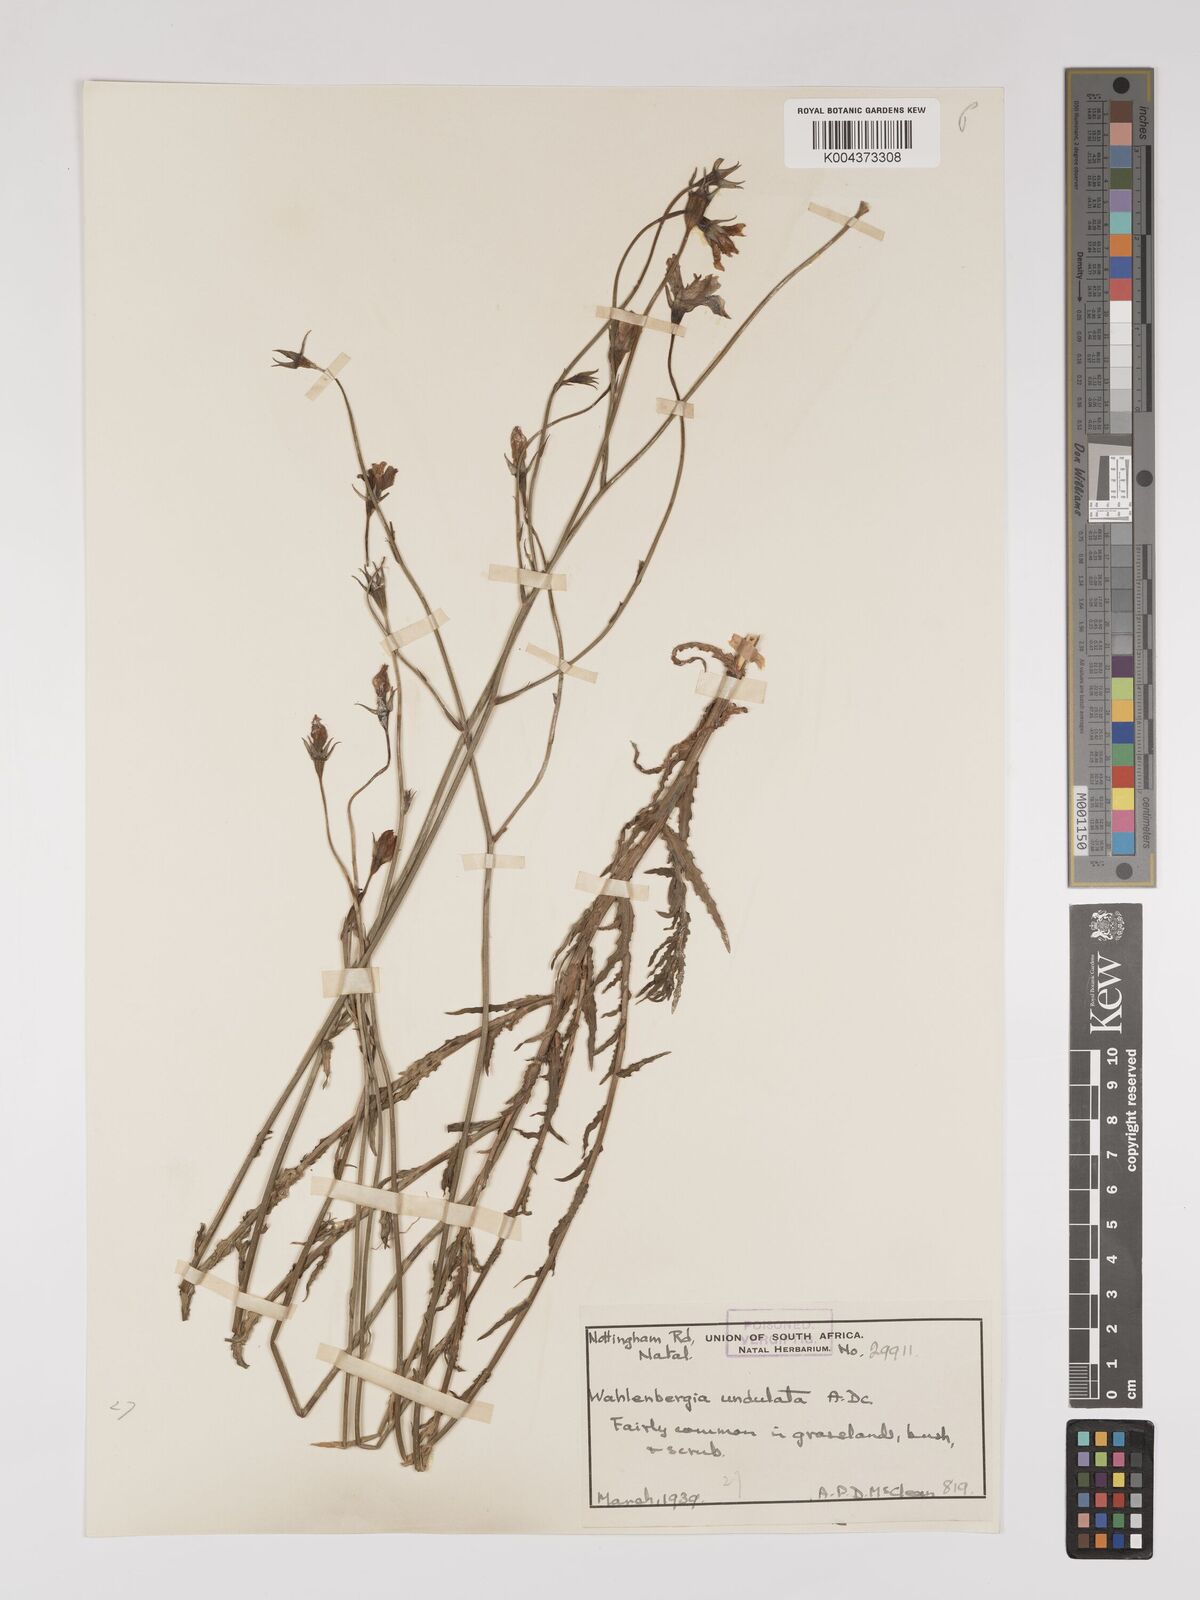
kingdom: Plantae
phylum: Tracheophyta
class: Magnoliopsida
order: Asterales
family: Campanulaceae
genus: Wahlenbergia
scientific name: Wahlenbergia undulata
